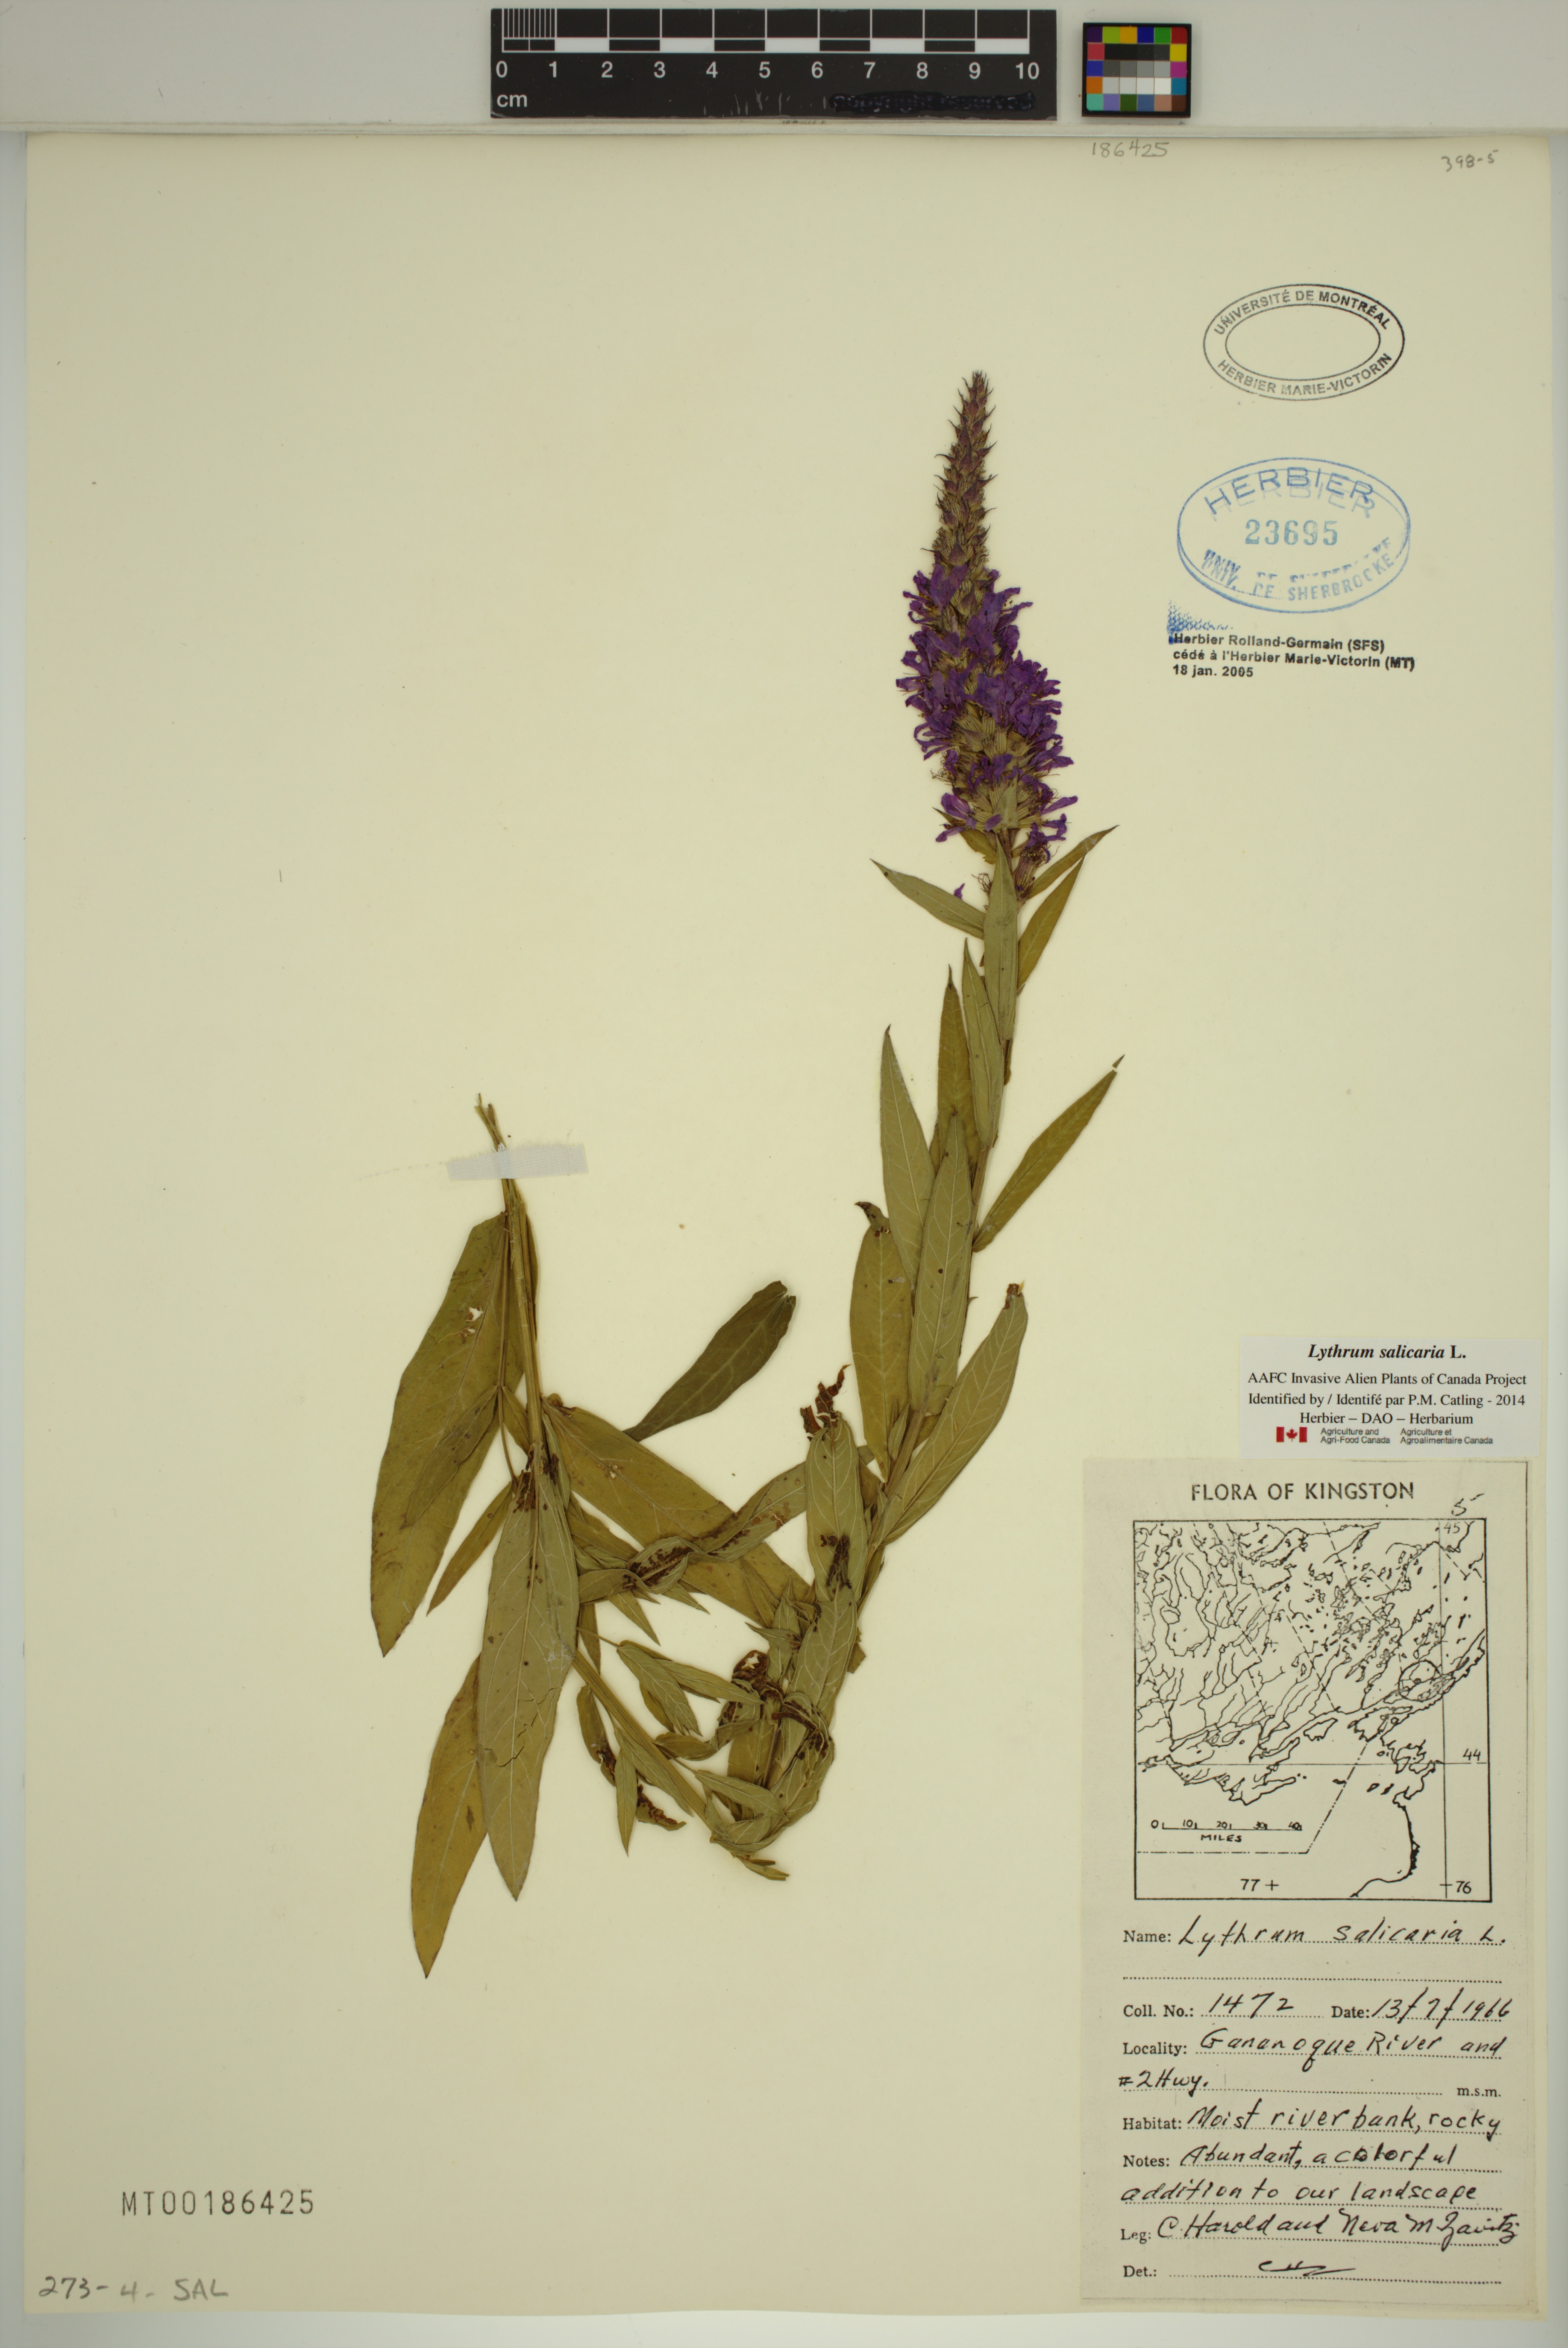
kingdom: Plantae
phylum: Tracheophyta
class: Magnoliopsida
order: Myrtales
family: Lythraceae
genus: Lythrum
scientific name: Lythrum salicaria
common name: Purple loosestrife
